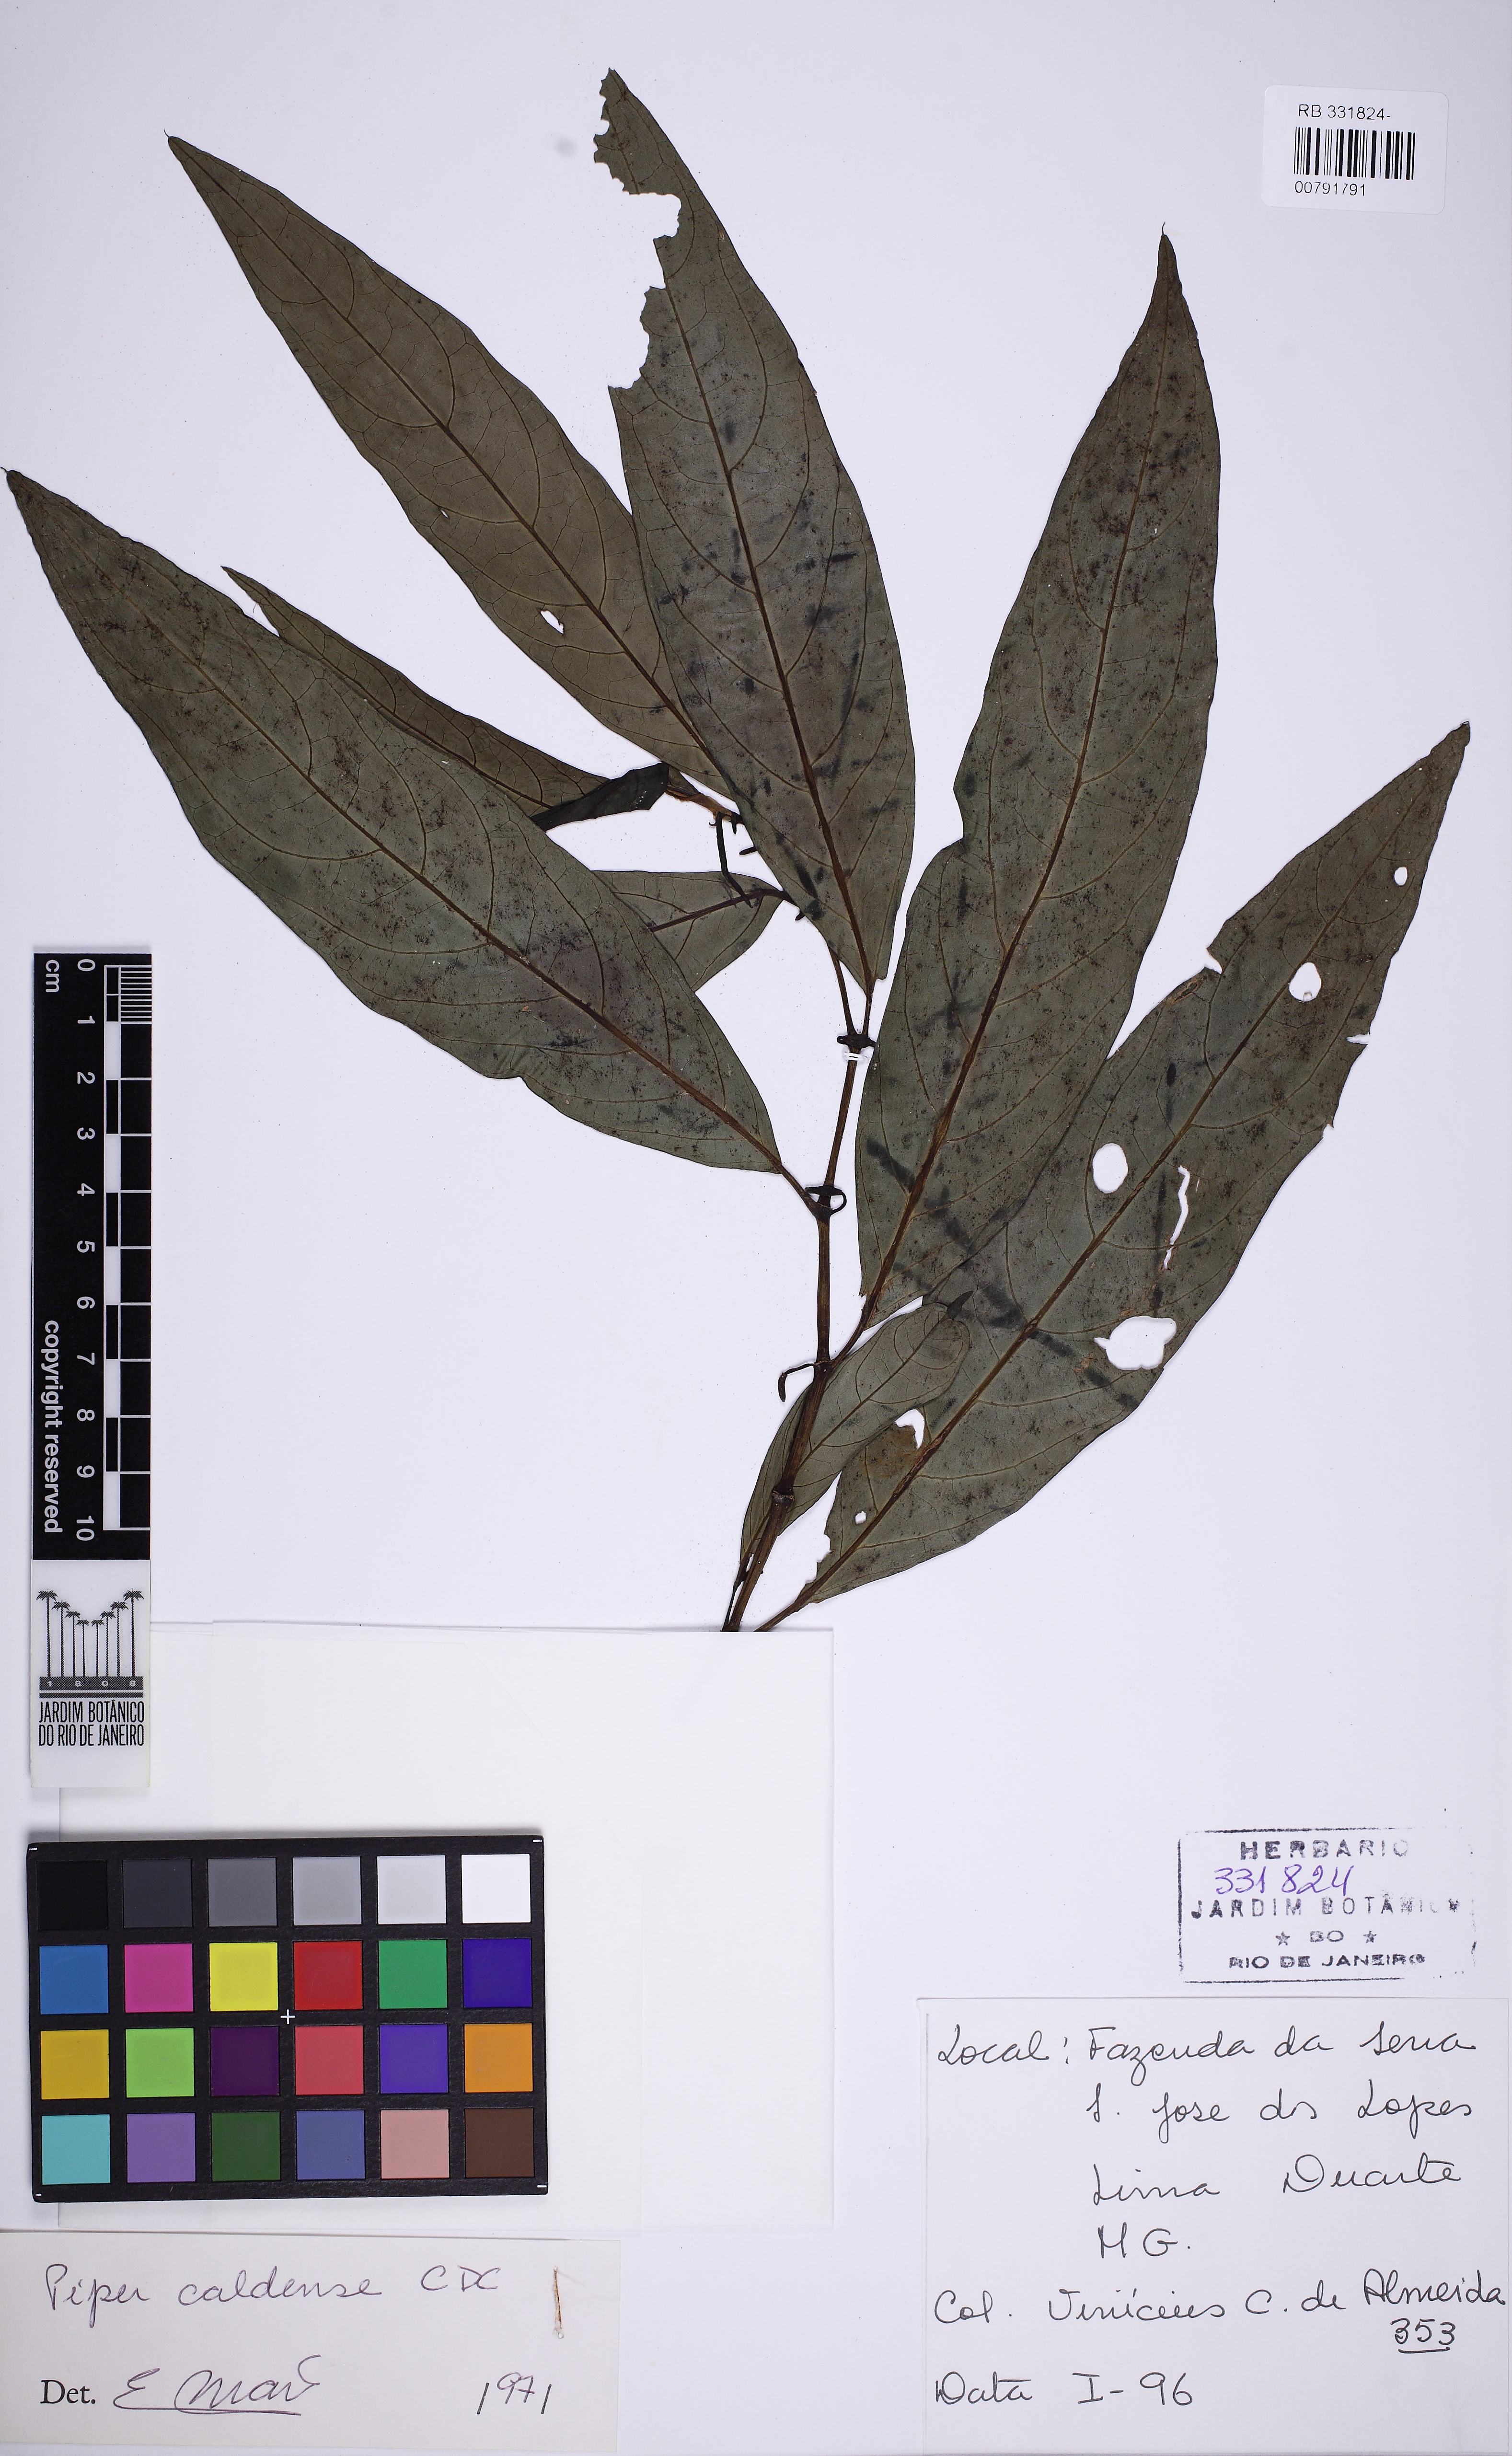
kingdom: Plantae
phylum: Tracheophyta
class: Magnoliopsida
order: Piperales
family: Piperaceae
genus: Piper
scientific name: Piper caldense
